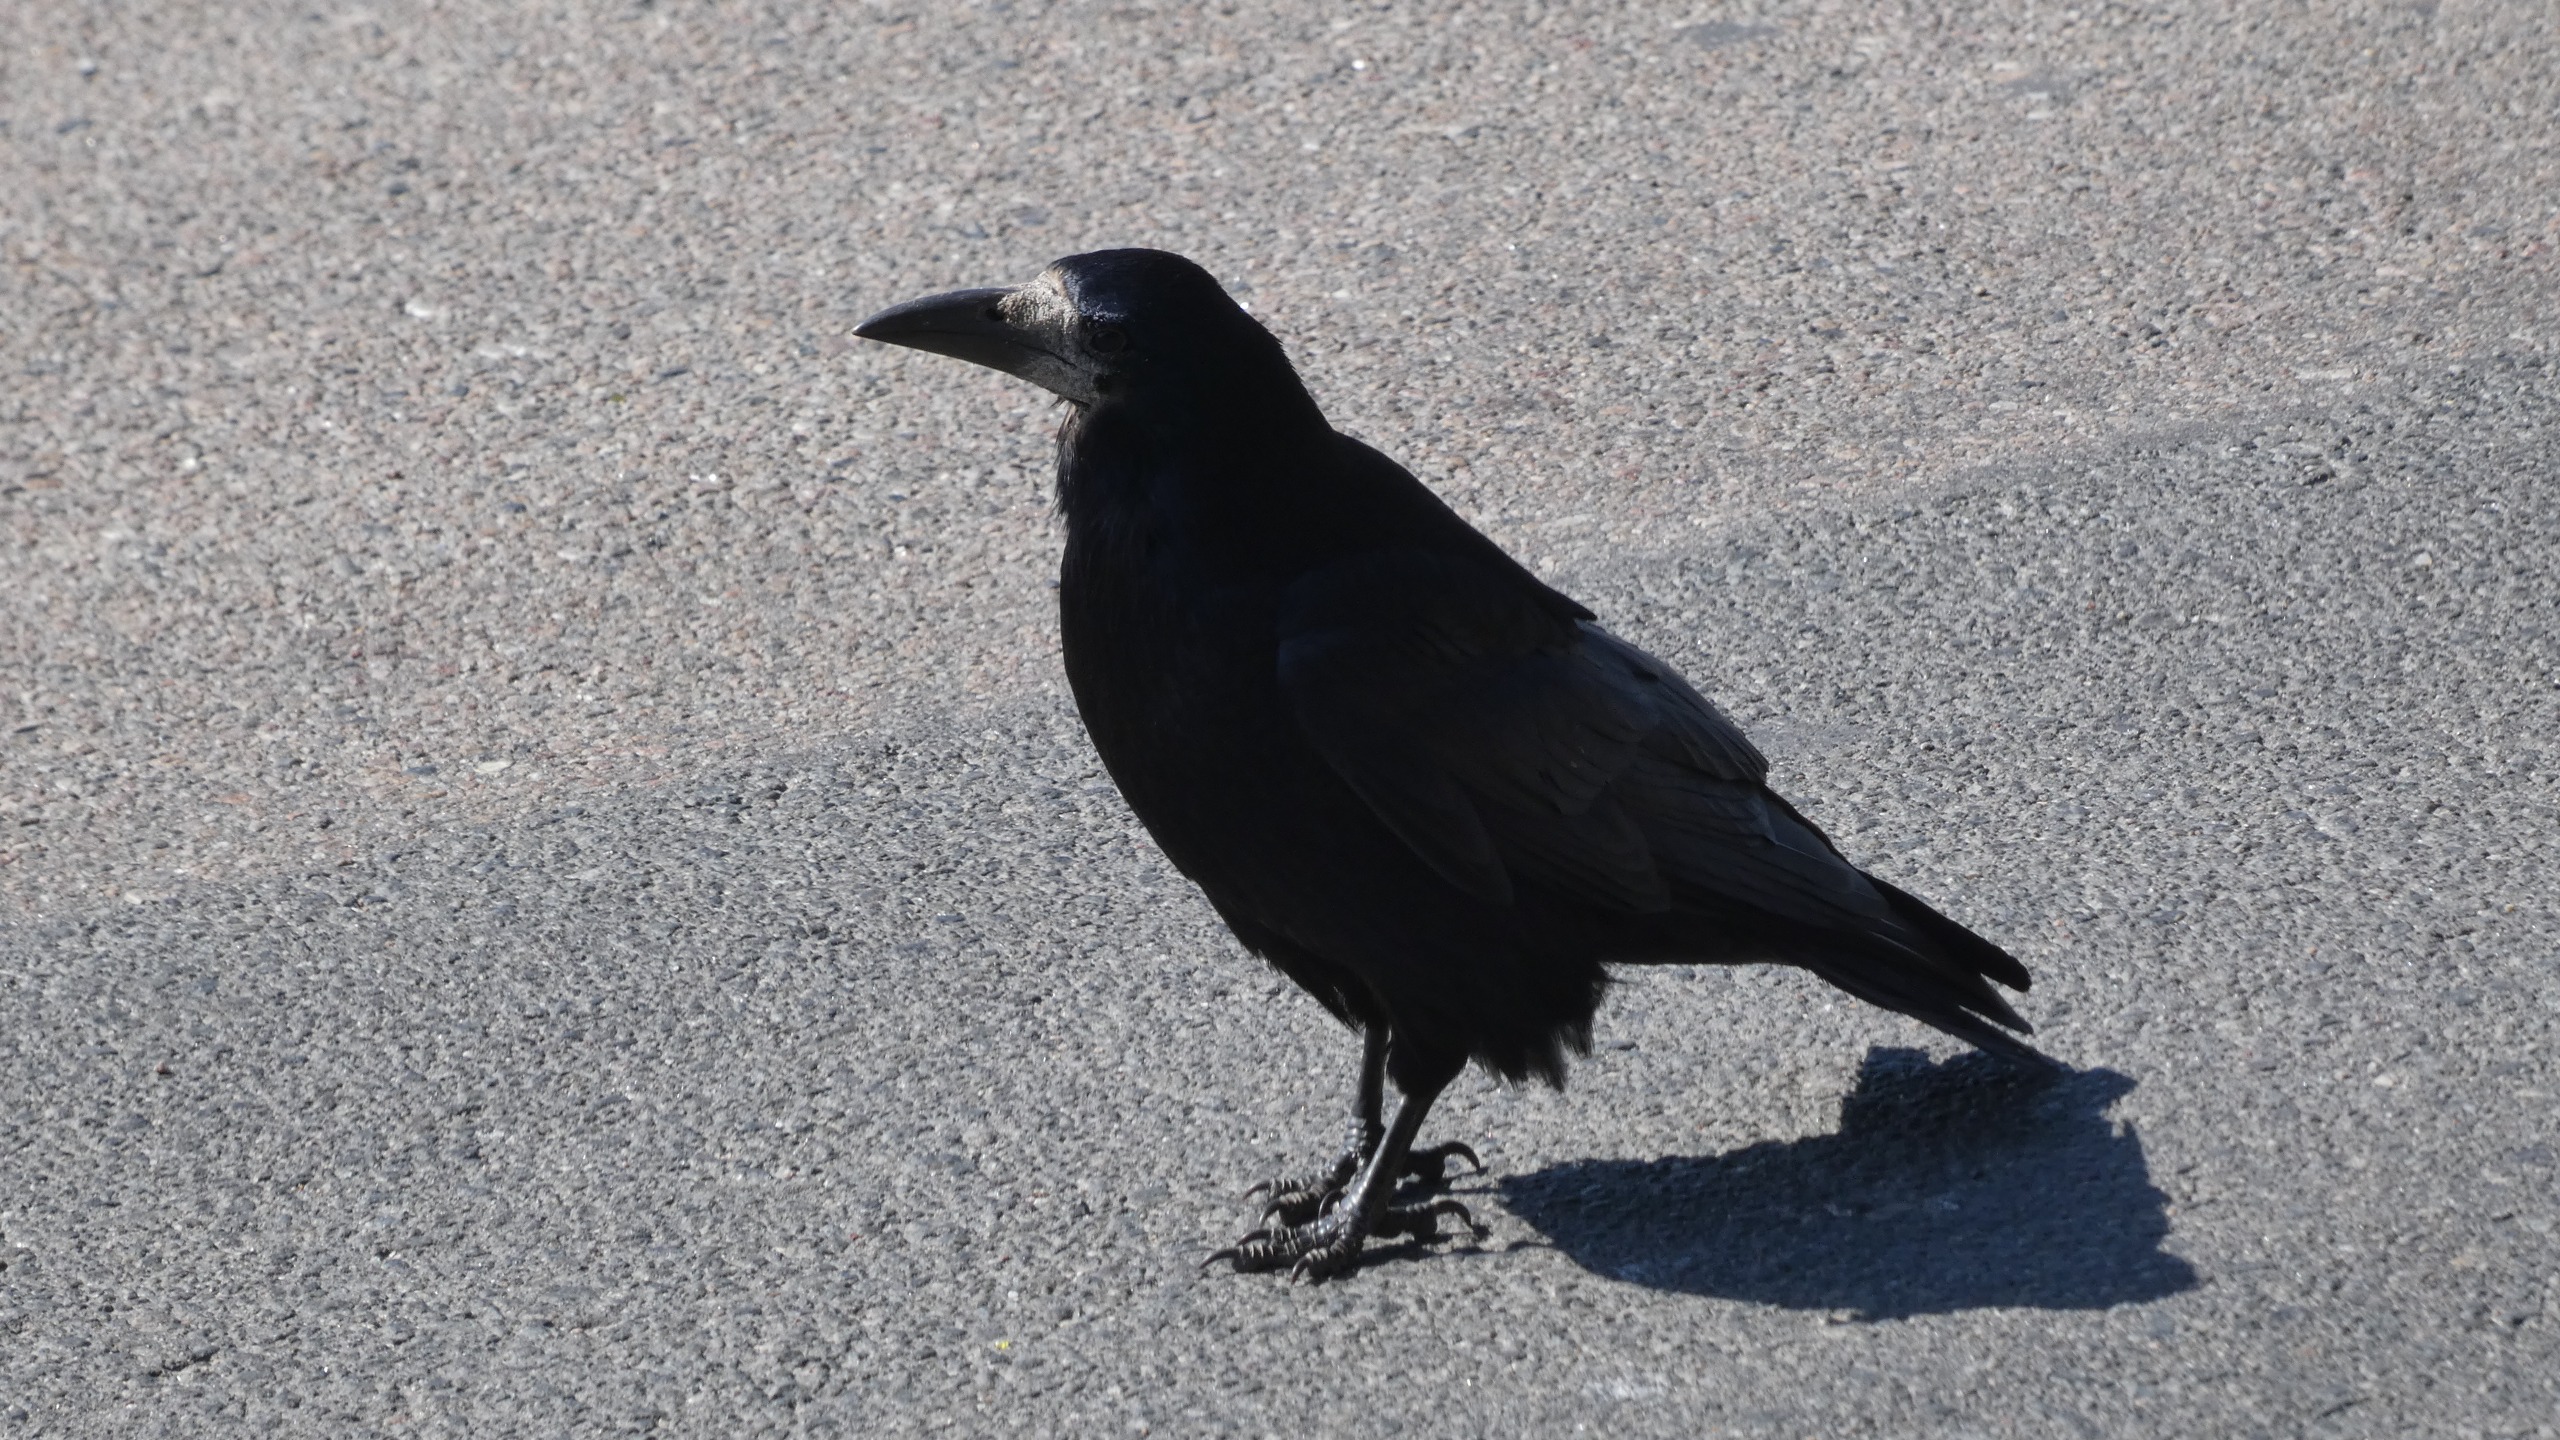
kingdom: Animalia
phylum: Chordata
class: Aves
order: Passeriformes
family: Corvidae
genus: Corvus
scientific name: Corvus frugilegus
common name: Råge
